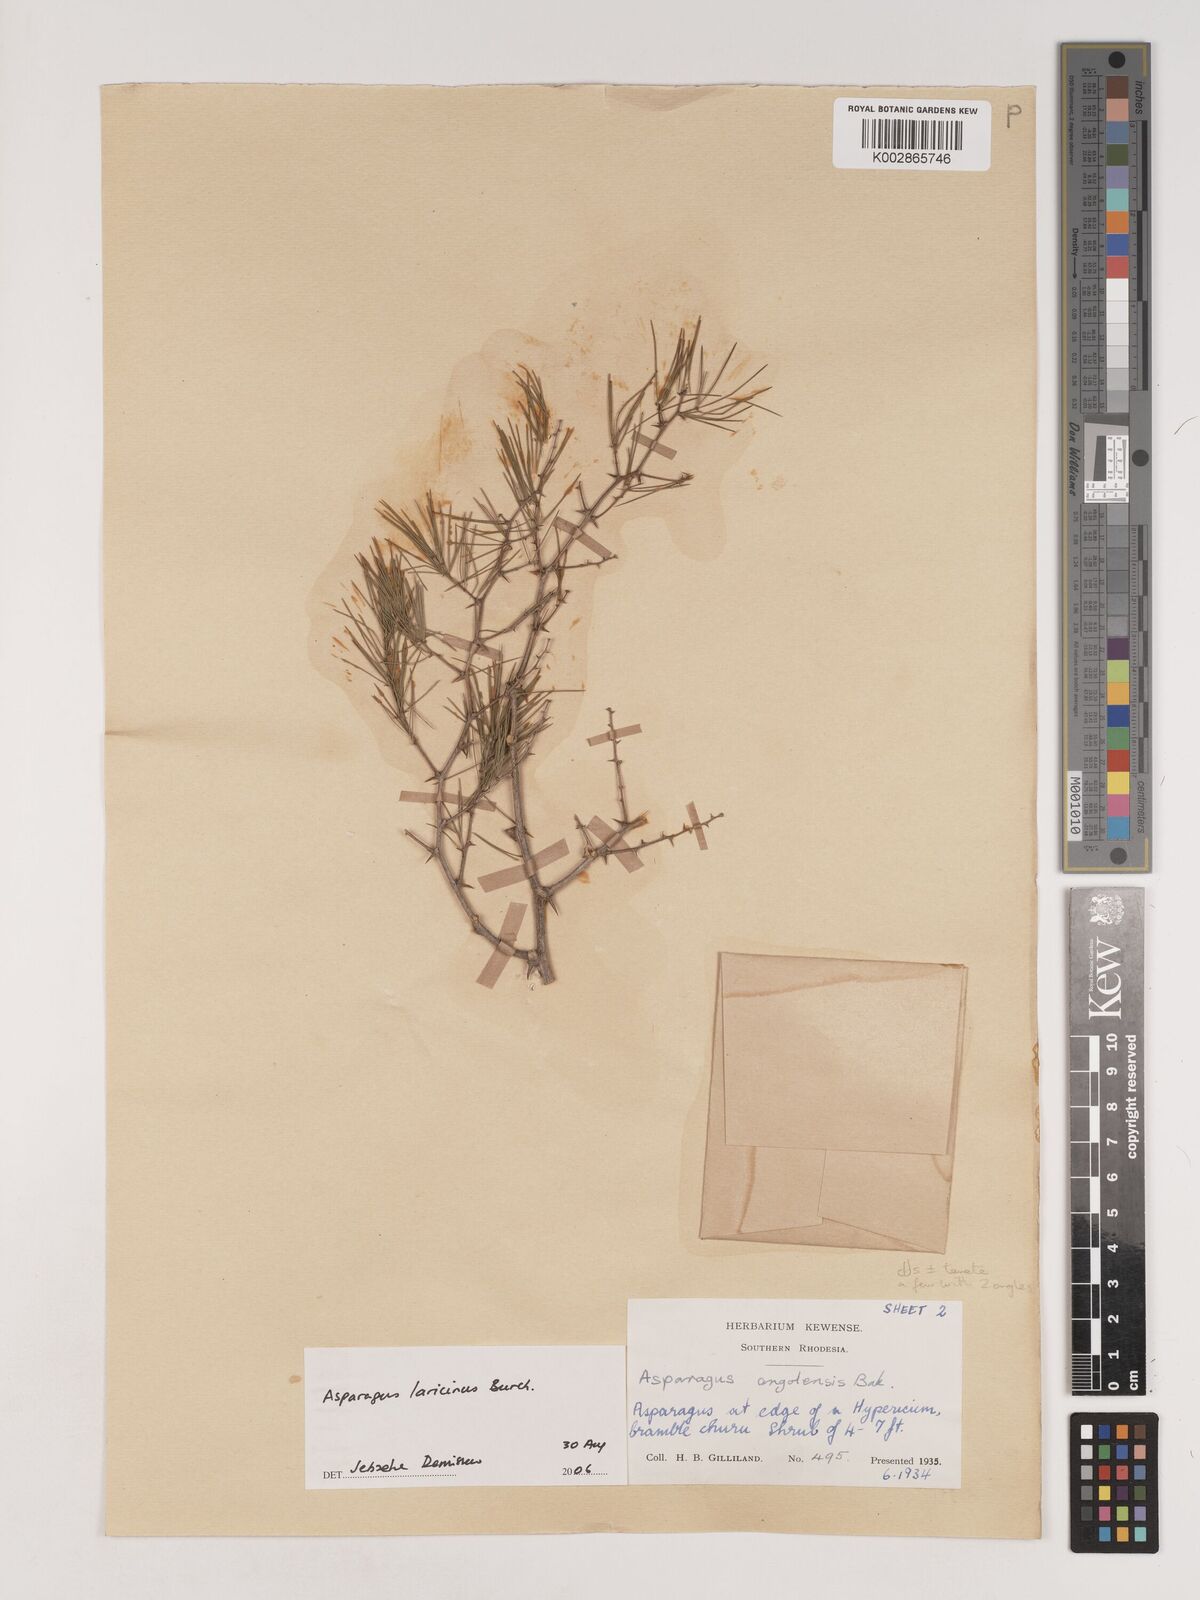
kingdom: Plantae
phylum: Tracheophyta
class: Liliopsida
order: Asparagales
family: Asparagaceae
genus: Asparagus
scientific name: Asparagus laricinus
